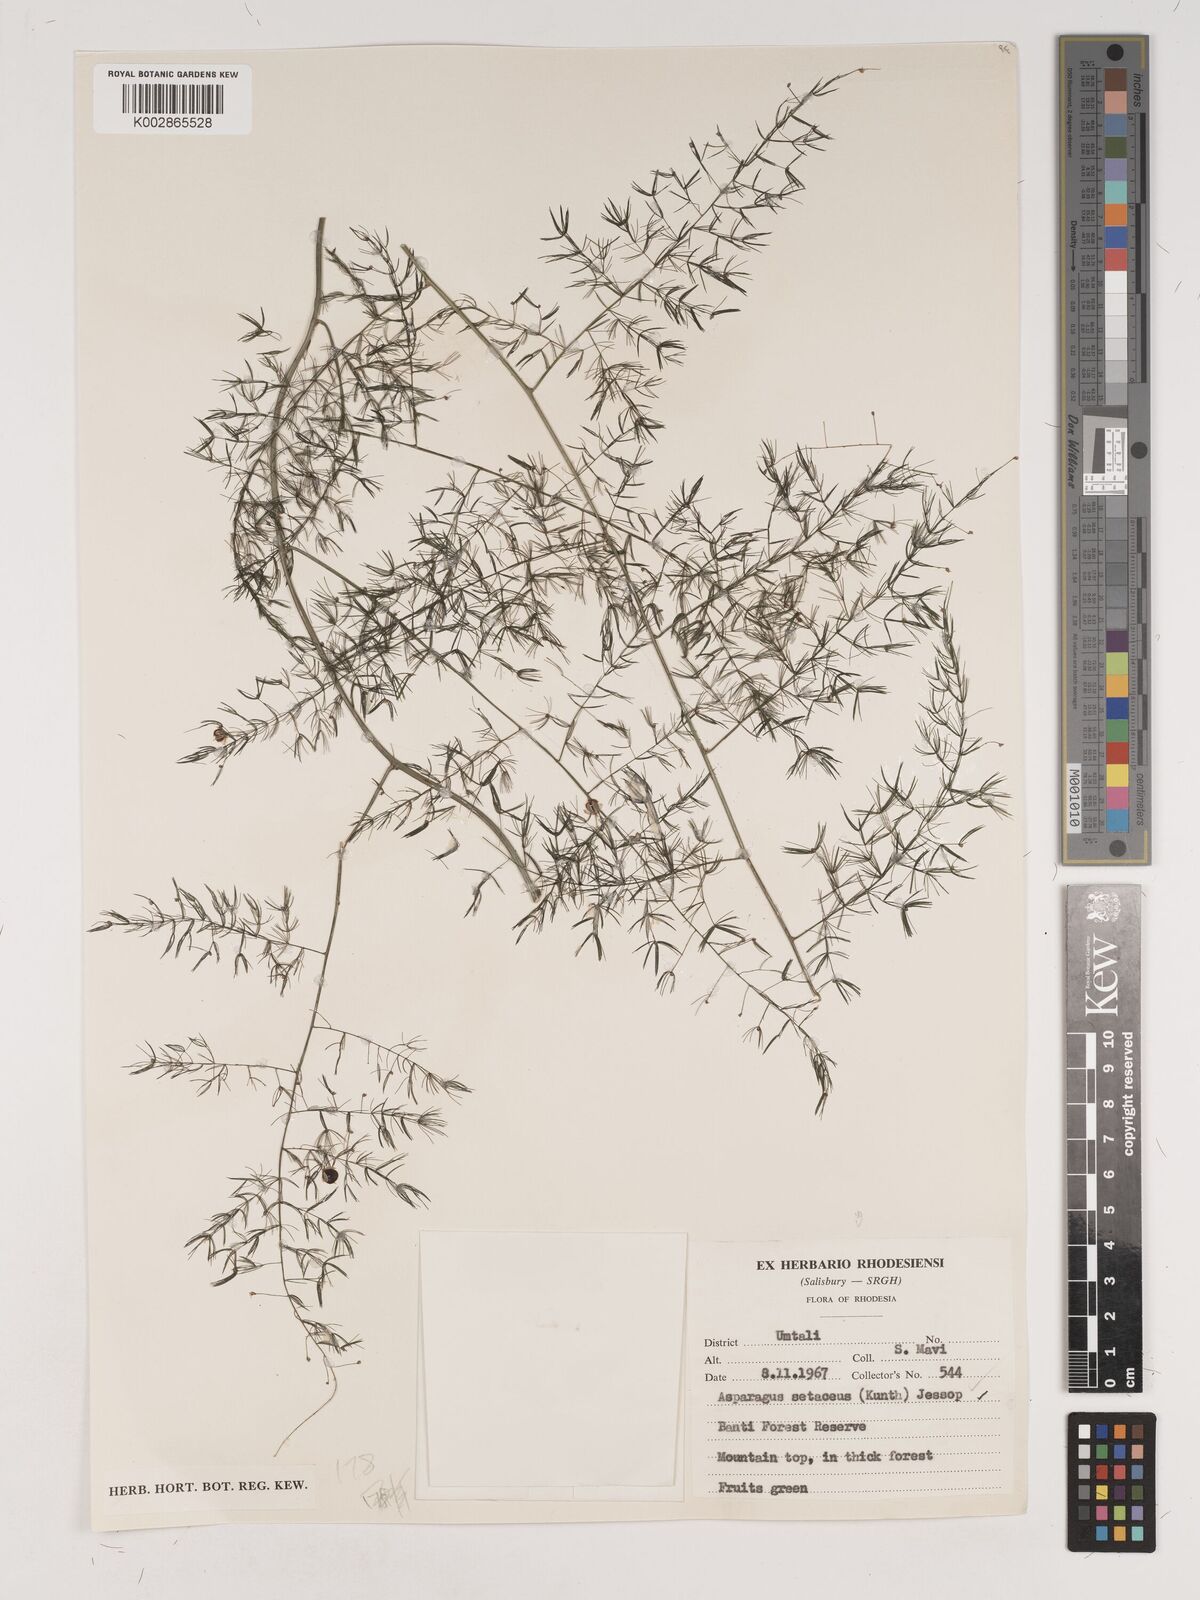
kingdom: Plantae
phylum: Tracheophyta
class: Liliopsida
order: Asparagales
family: Asparagaceae
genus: Asparagus
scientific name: Asparagus setaceus
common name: Common asparagus fern
